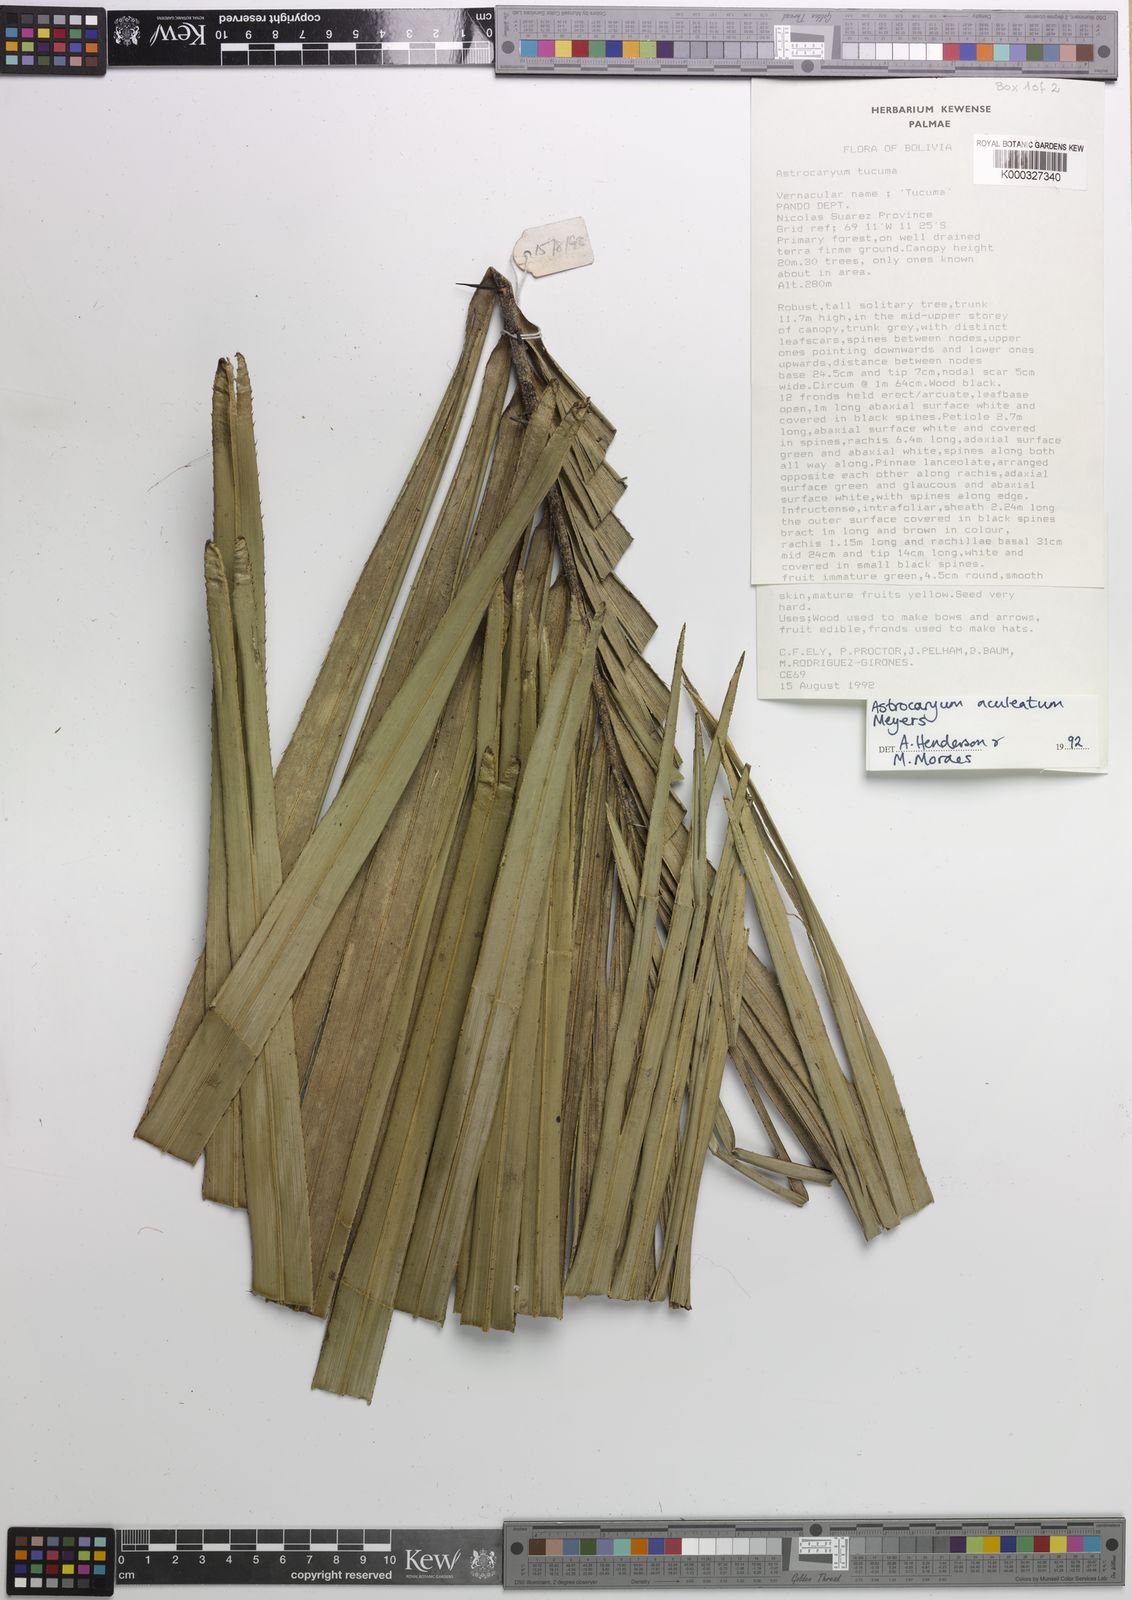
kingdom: Plantae
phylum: Tracheophyta
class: Liliopsida
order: Arecales
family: Arecaceae
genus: Astrocaryum
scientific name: Astrocaryum aculeatum
